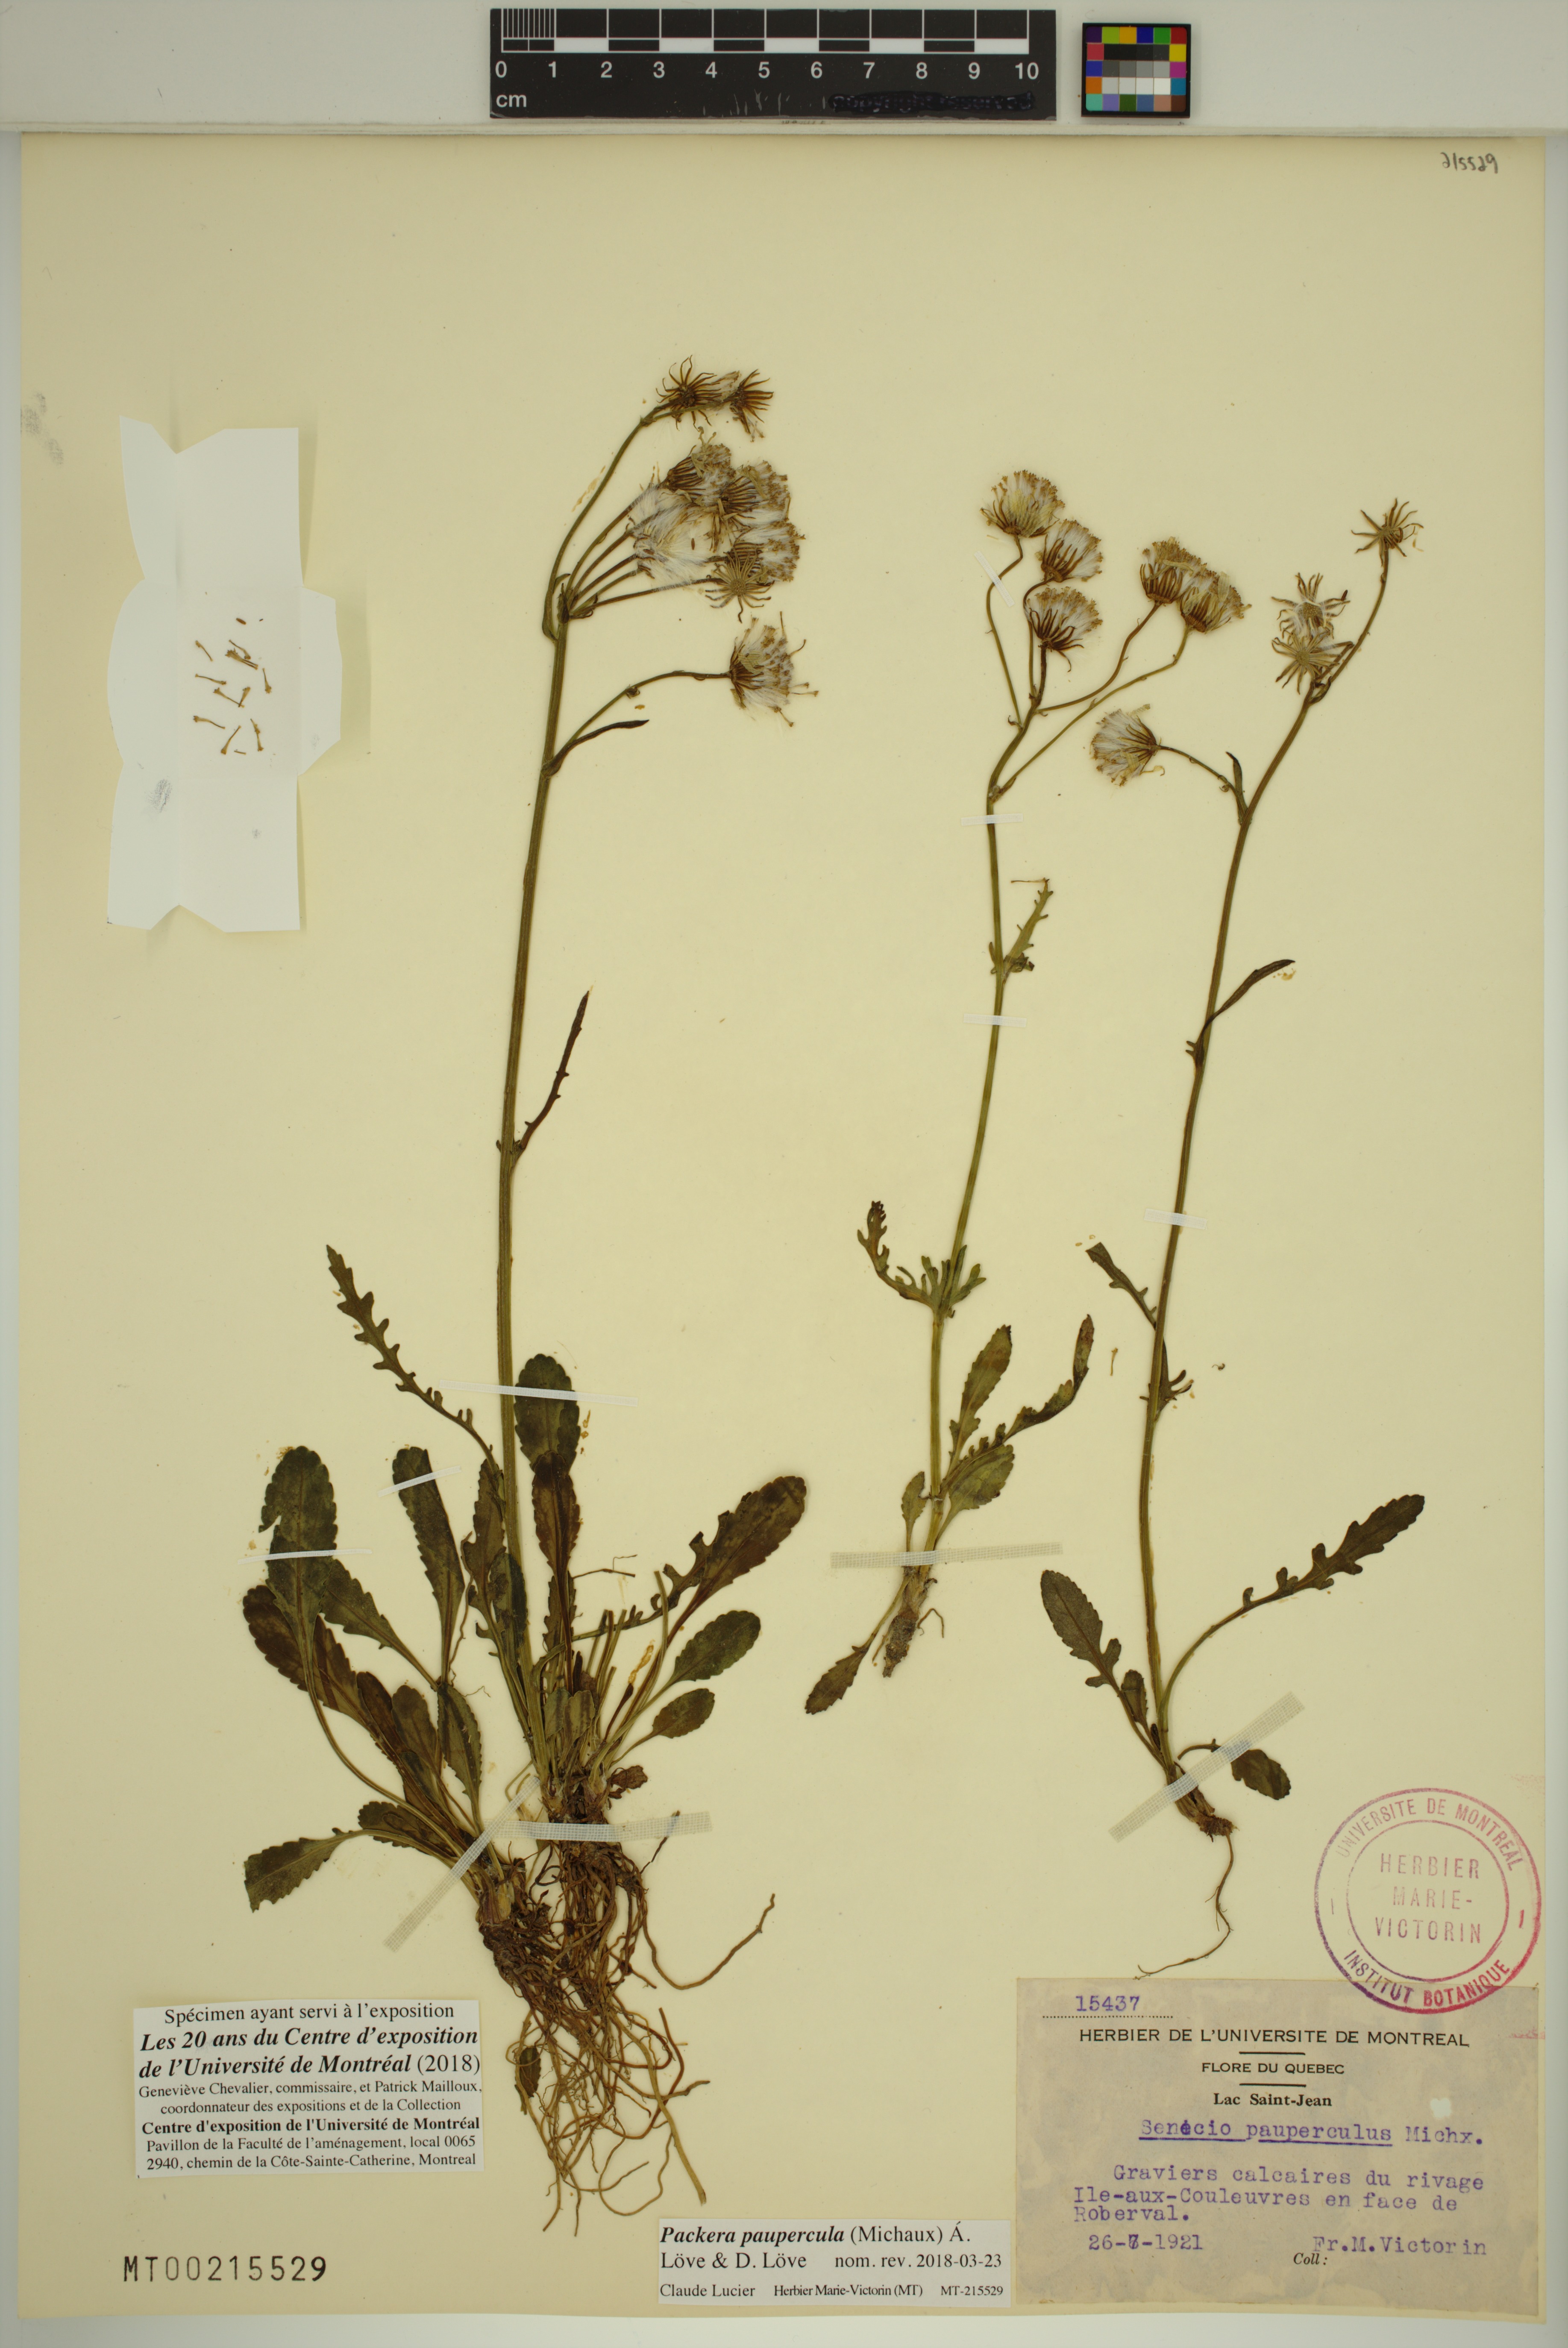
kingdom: Plantae
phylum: Tracheophyta
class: Magnoliopsida
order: Asterales
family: Asteraceae
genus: Packera
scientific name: Packera paupercula
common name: Balsam groundsel
